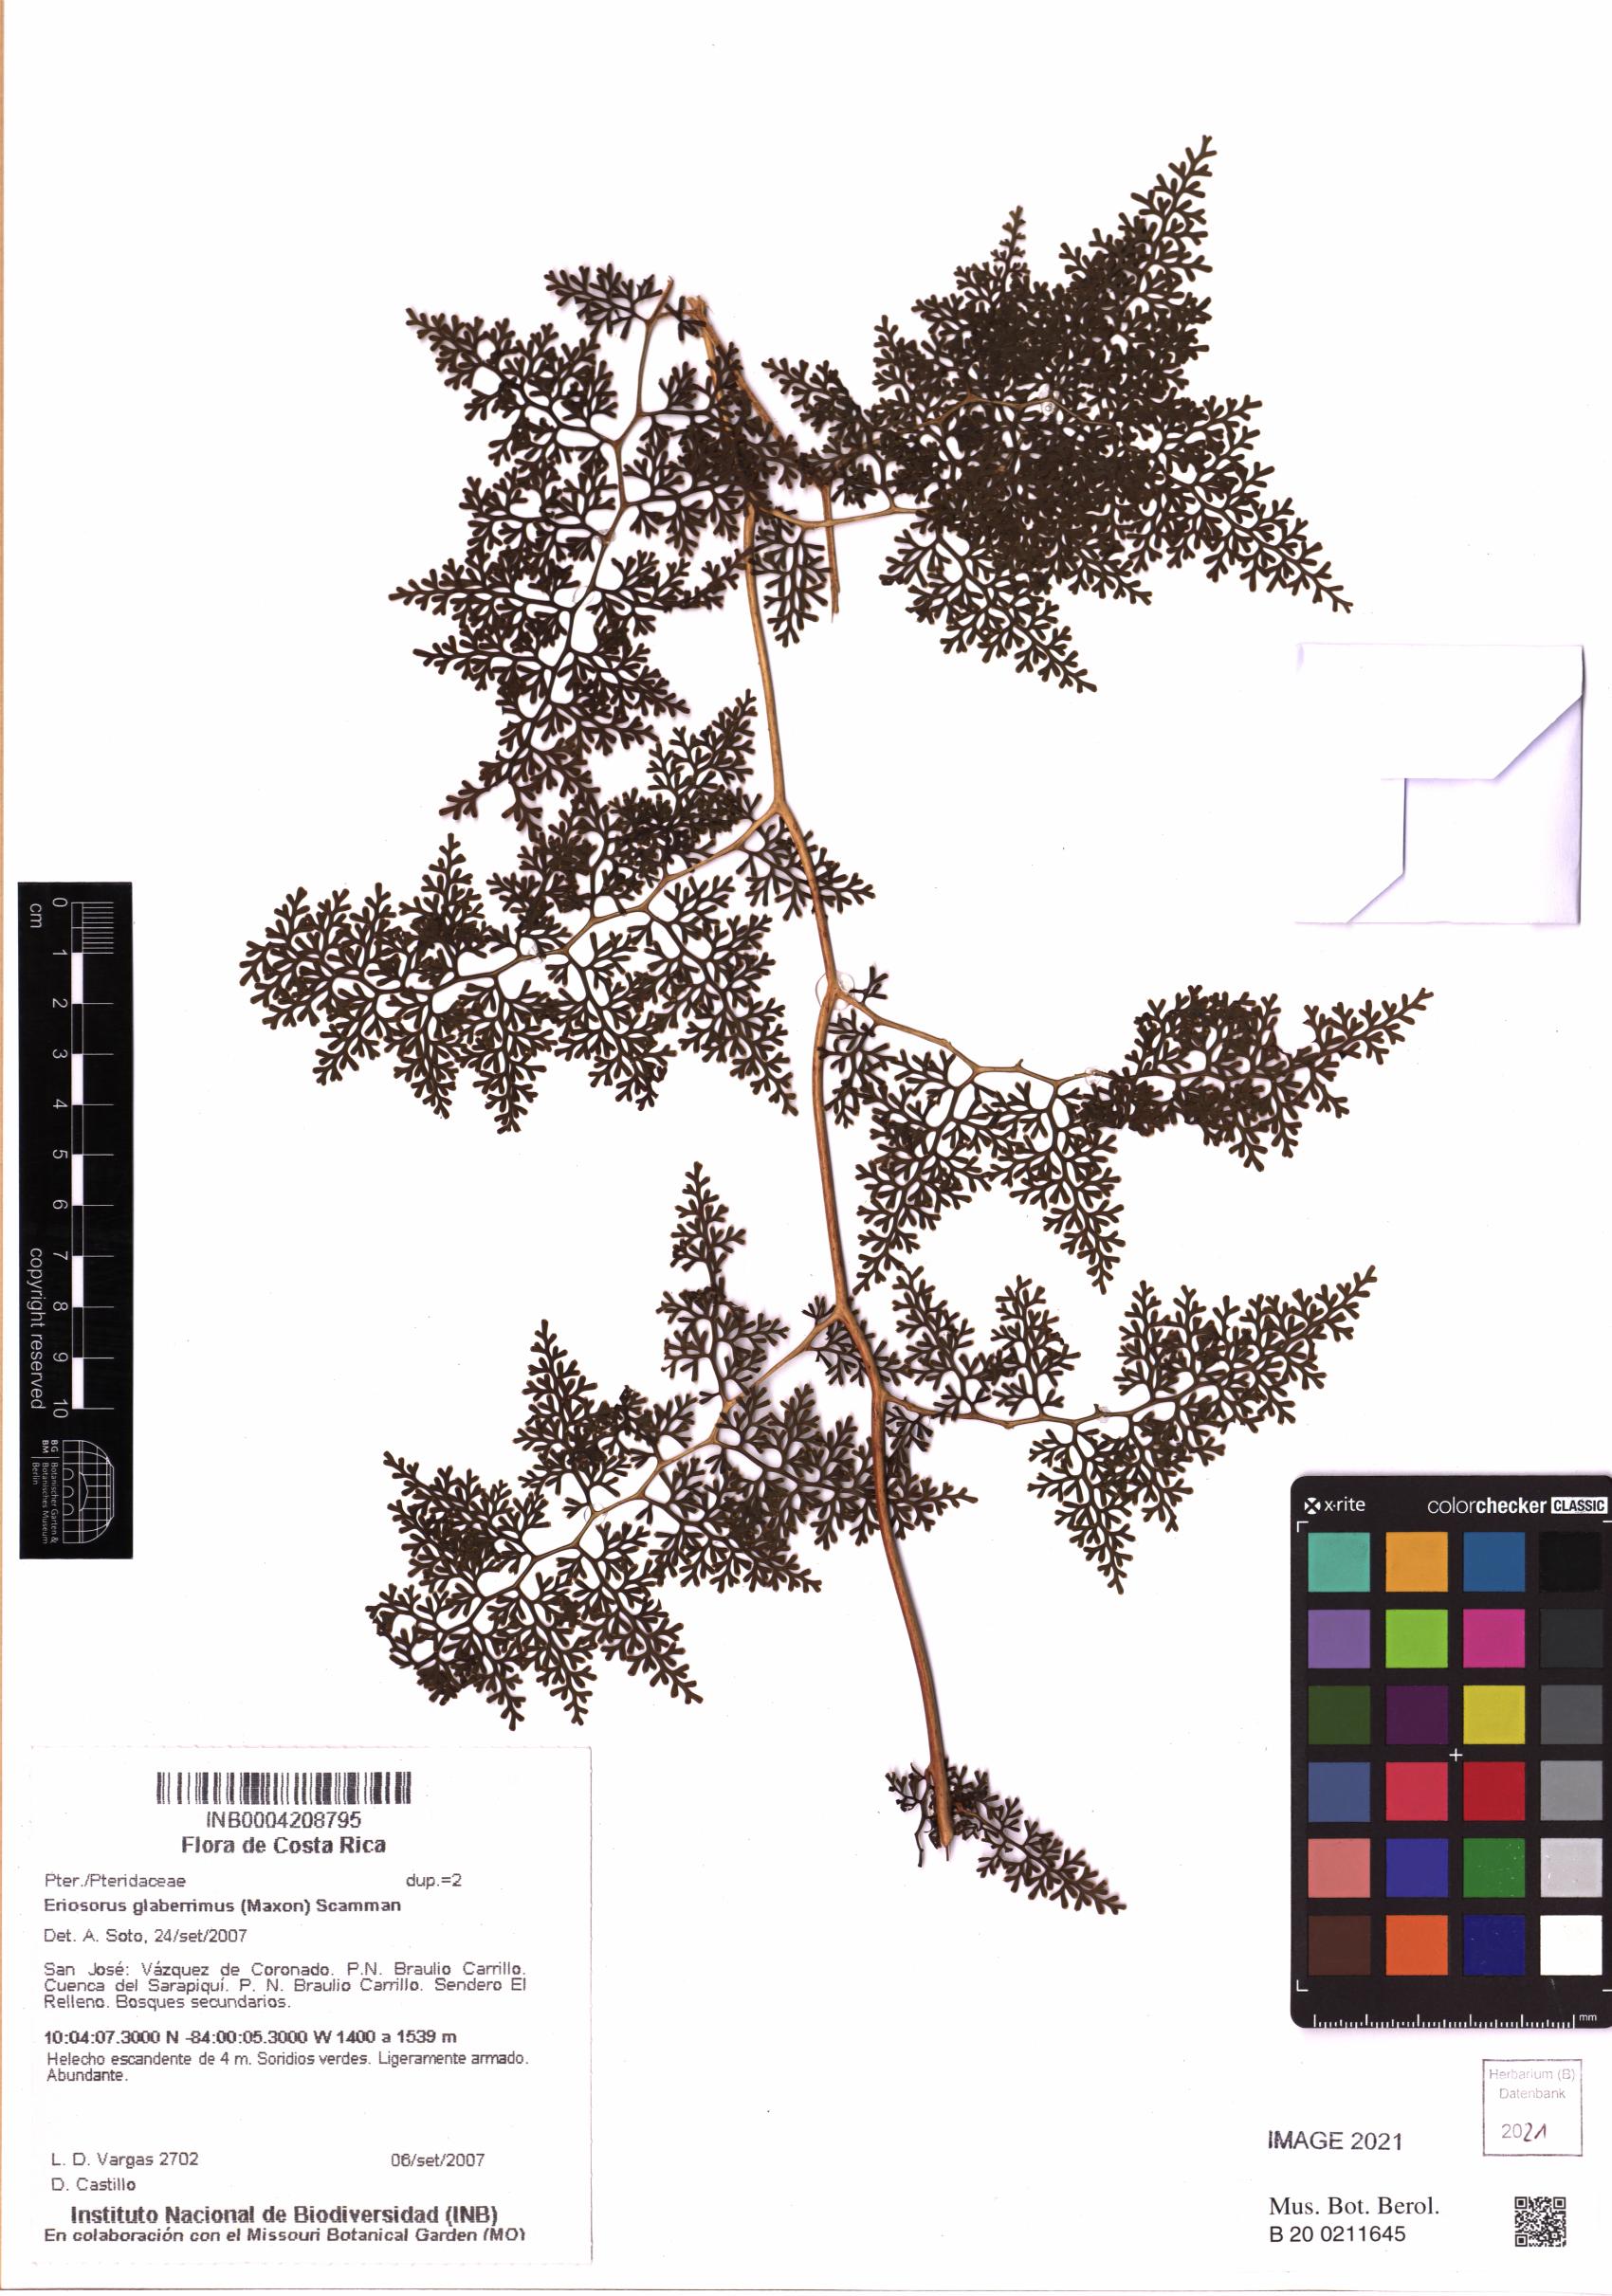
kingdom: Plantae
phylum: Tracheophyta
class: Polypodiopsida
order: Polypodiales
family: Pteridaceae
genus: Jamesonia
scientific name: Jamesonia glaberrima
